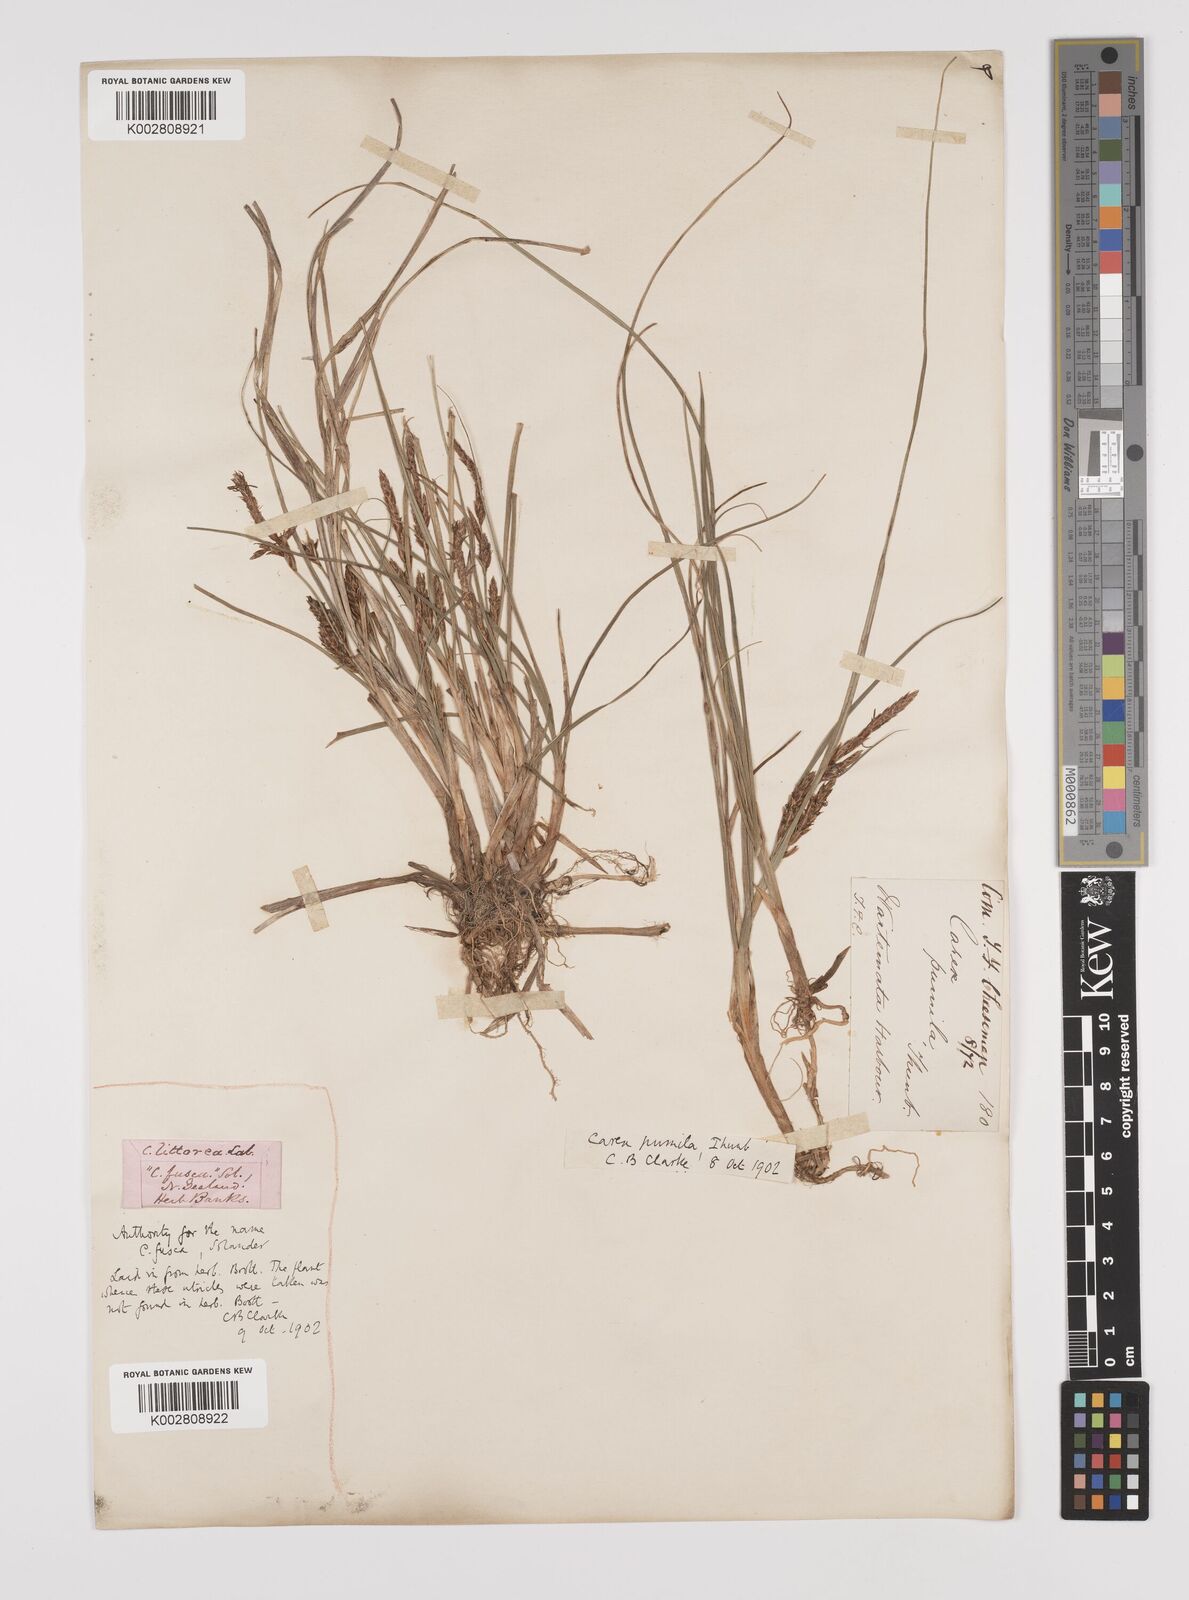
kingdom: Plantae
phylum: Tracheophyta
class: Liliopsida
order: Poales
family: Cyperaceae
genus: Carex
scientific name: Carex pumila
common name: Dwarf sedge
